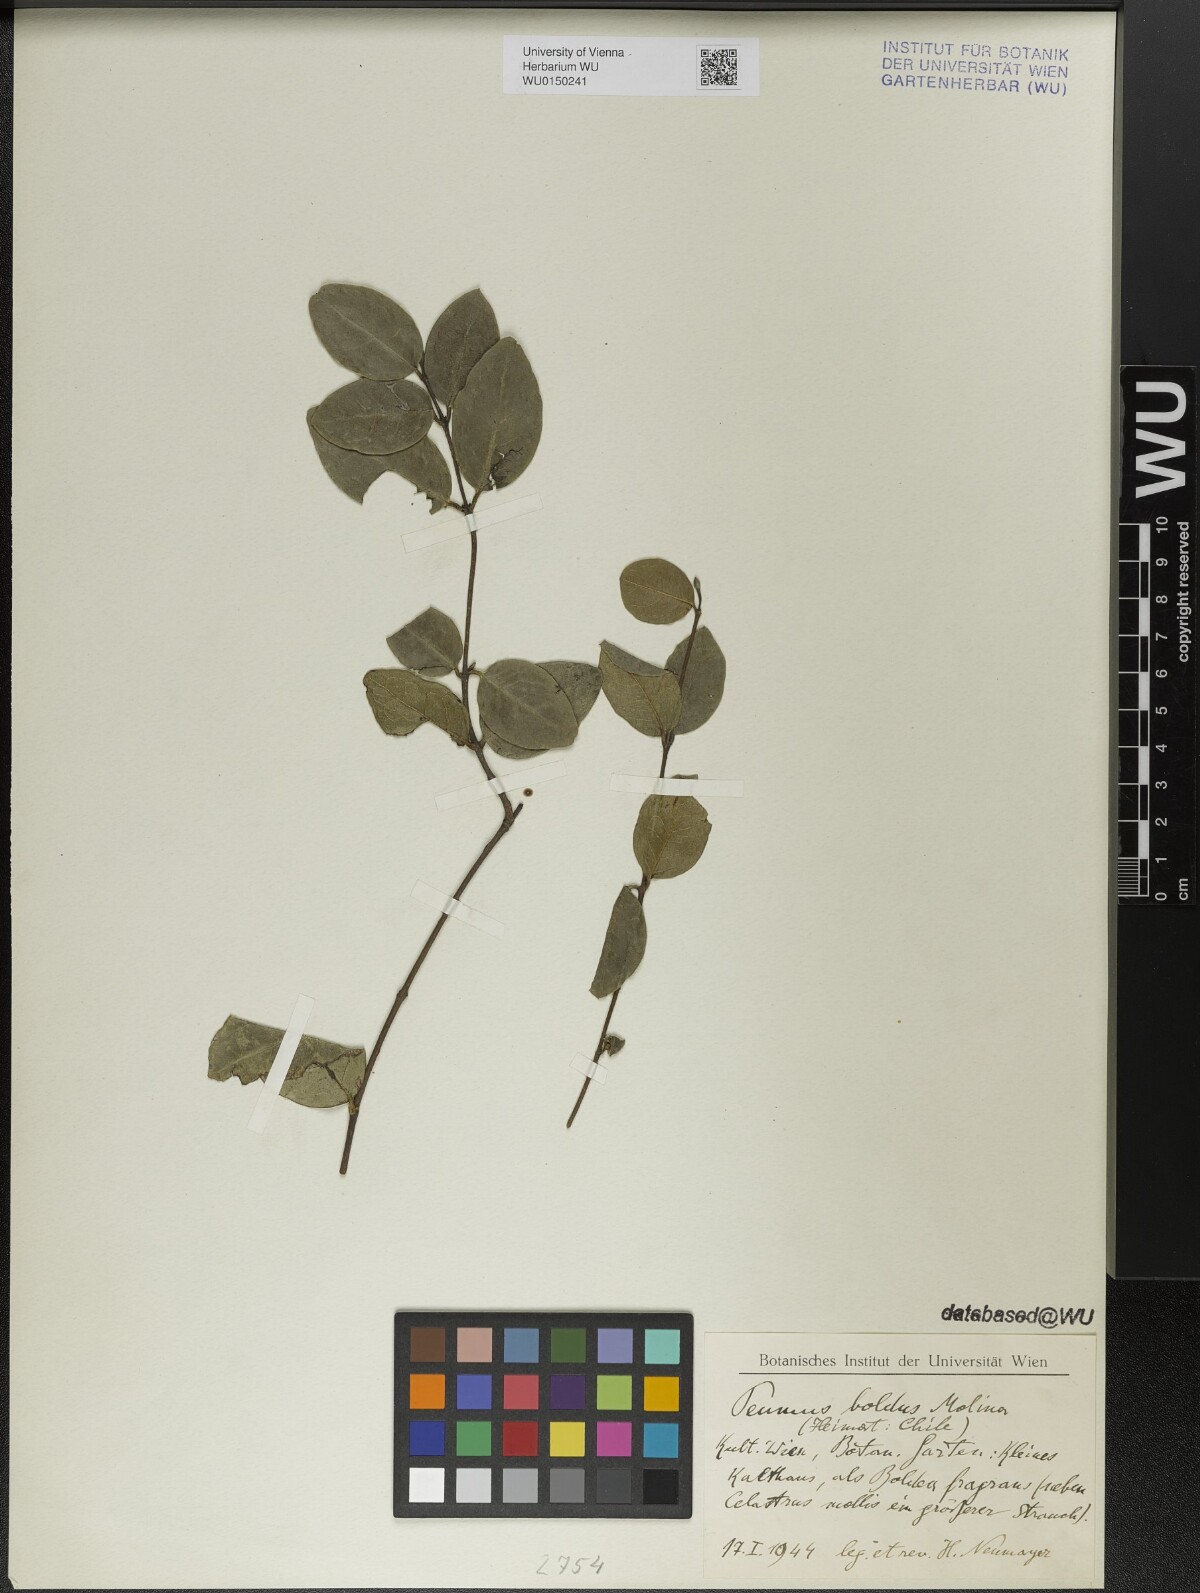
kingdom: Plantae
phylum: Tracheophyta
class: Magnoliopsida
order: Laurales
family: Monimiaceae
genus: Peumus
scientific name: Peumus boldus
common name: Boldo
